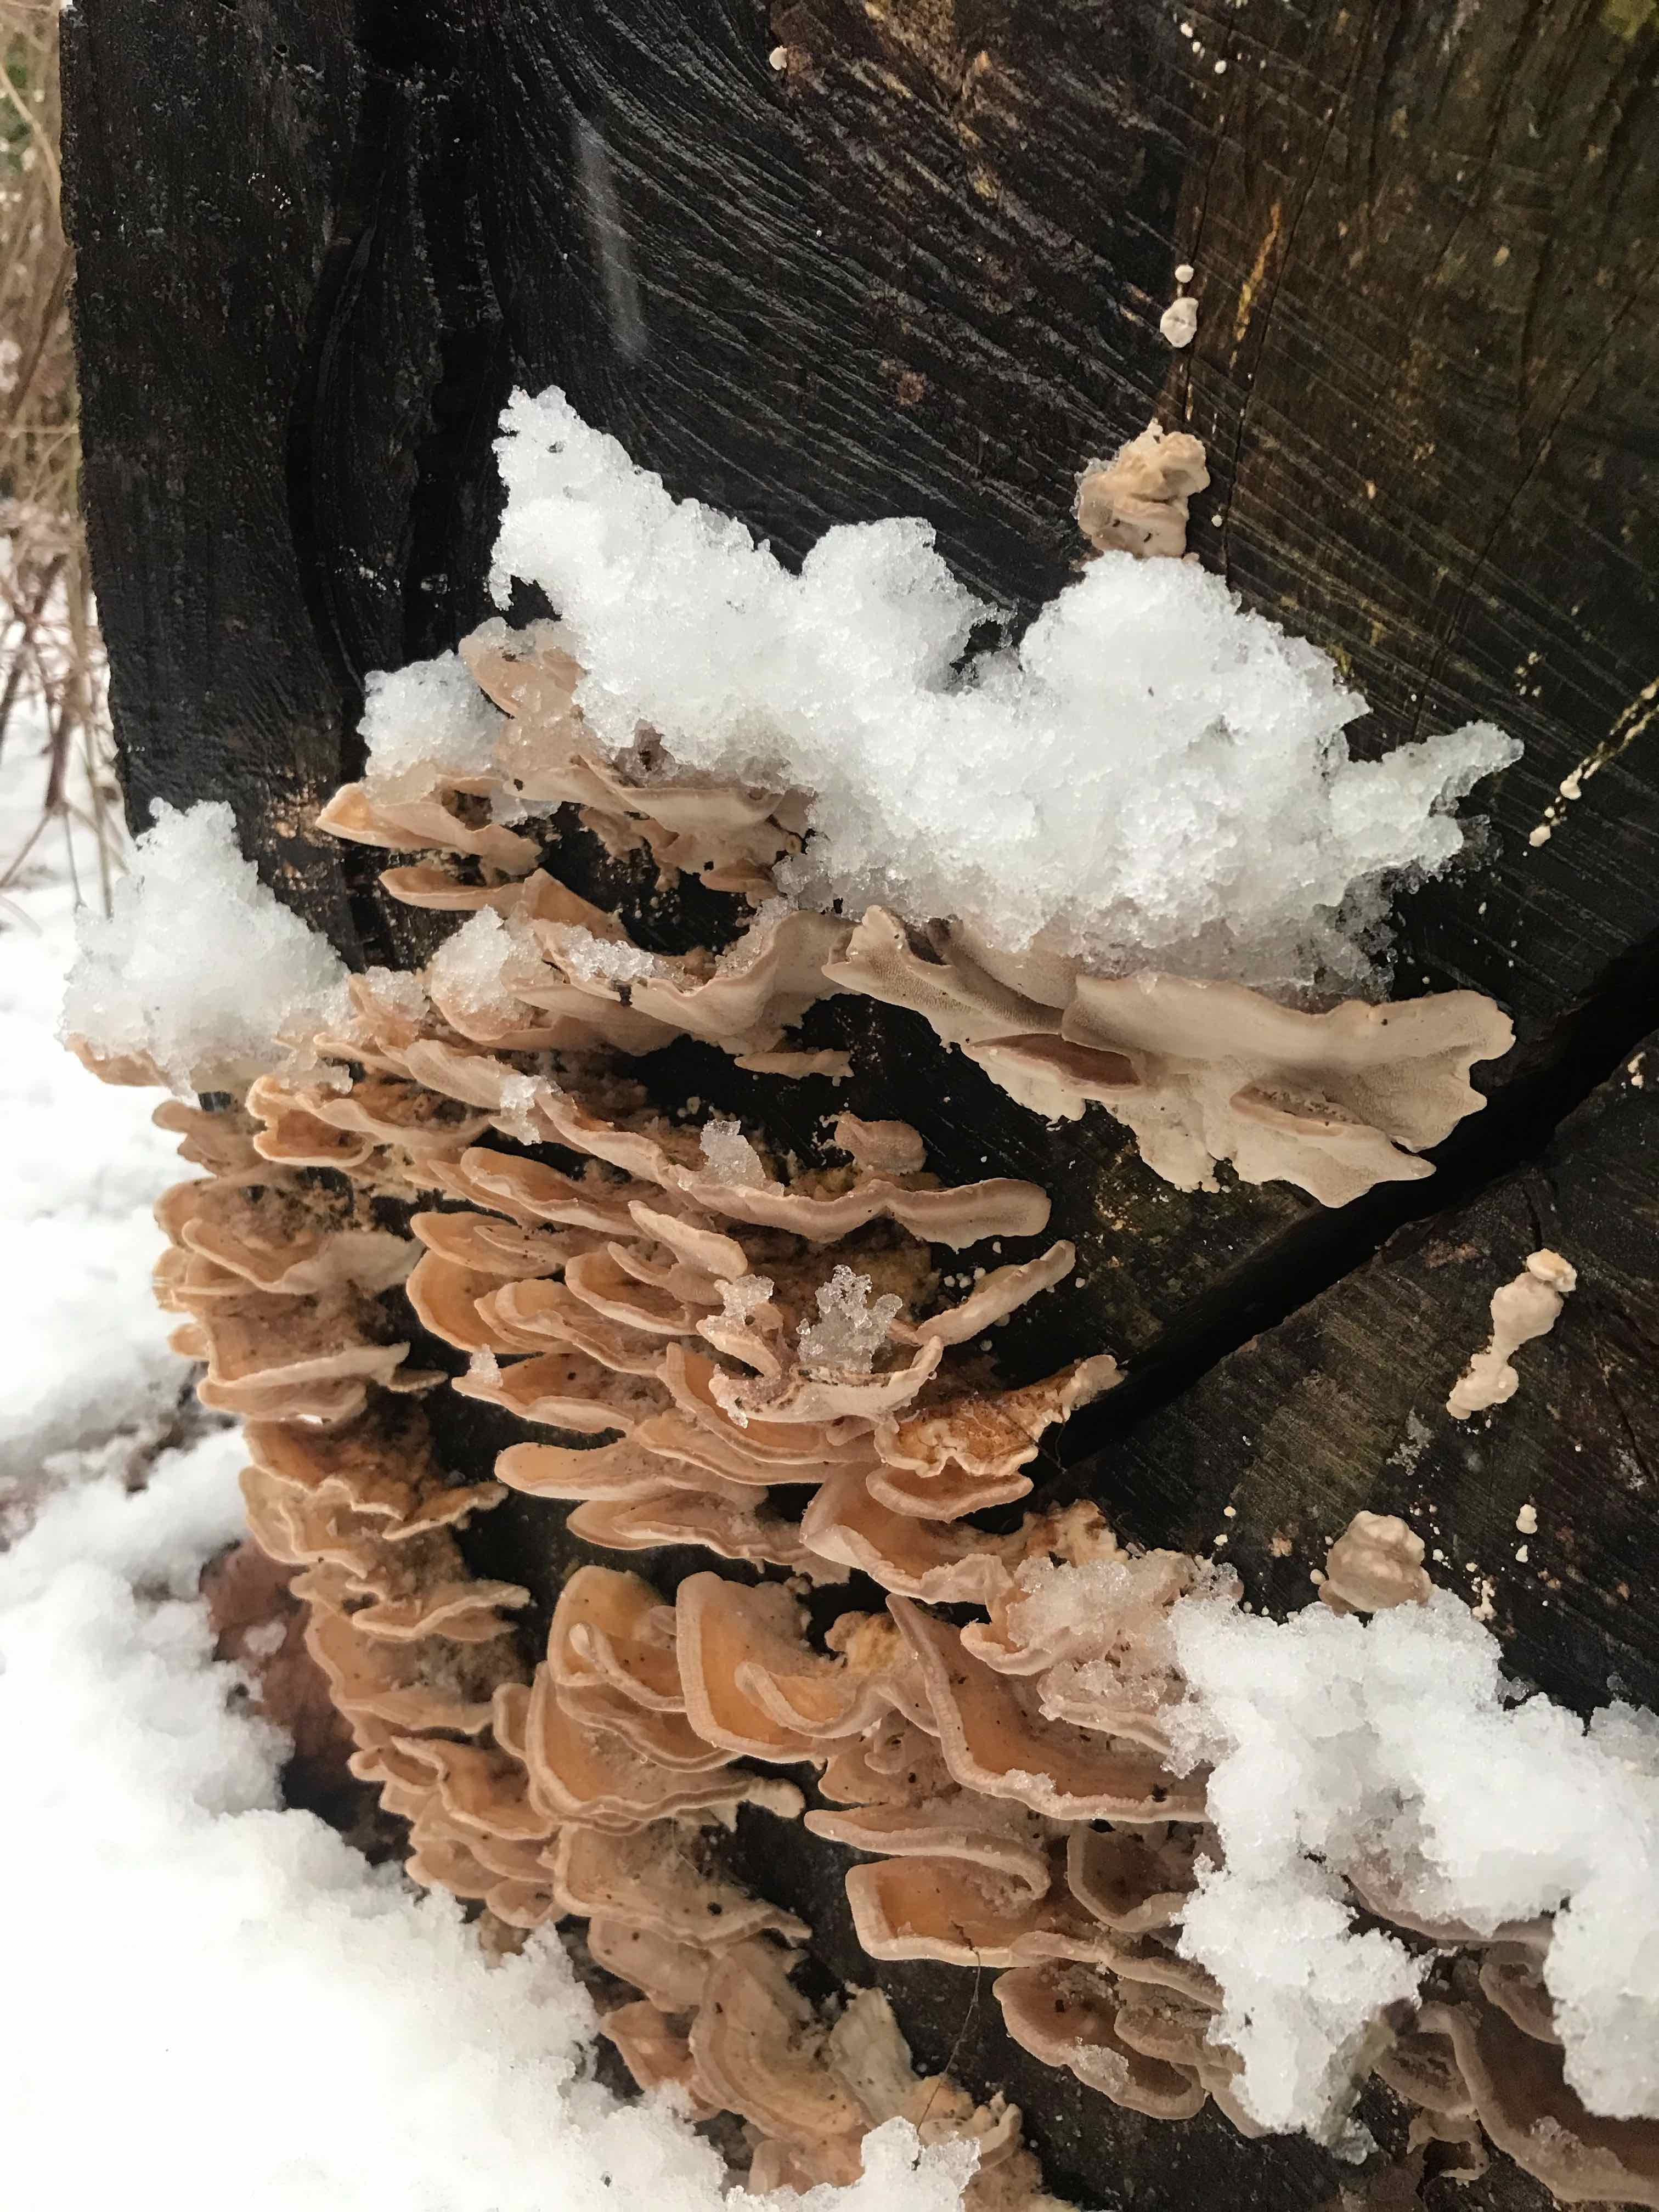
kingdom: Fungi
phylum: Basidiomycota
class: Agaricomycetes
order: Polyporales
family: Polyporaceae
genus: Trametes
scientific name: Trametes
